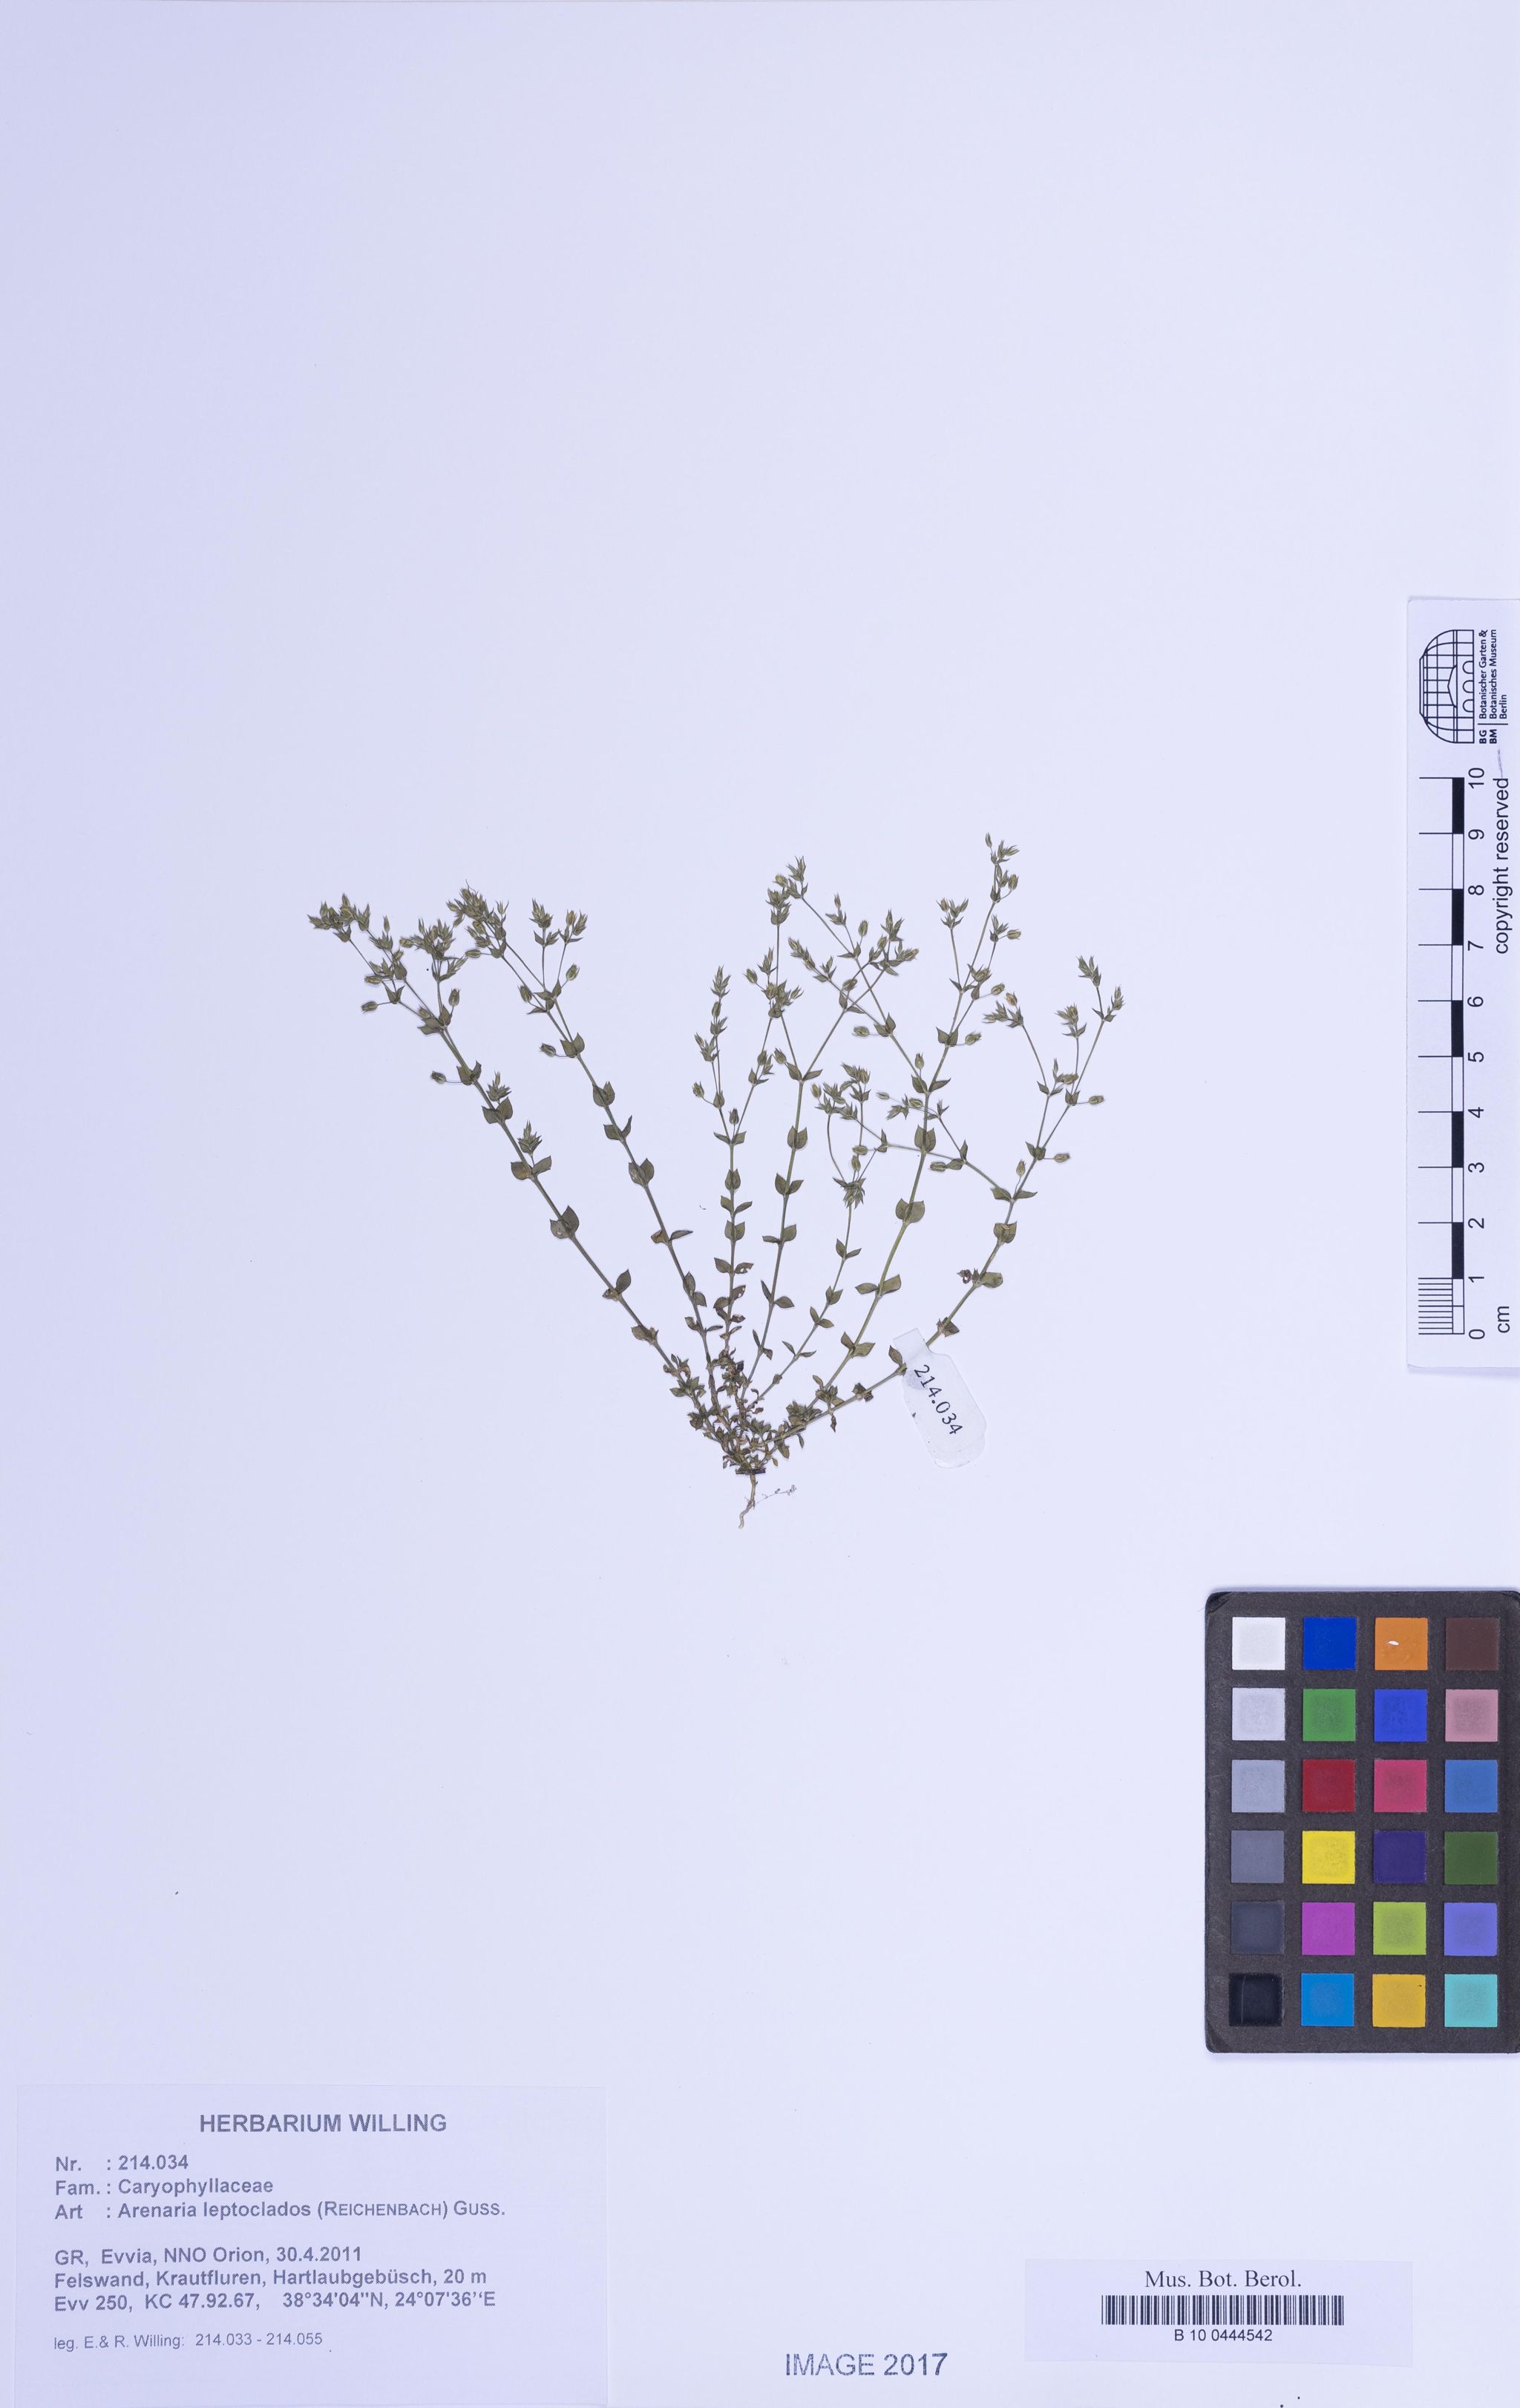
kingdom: Plantae
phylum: Tracheophyta
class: Magnoliopsida
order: Caryophyllales
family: Caryophyllaceae
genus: Arenaria
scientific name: Arenaria leptoclados
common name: Thyme-leaved sandwort
